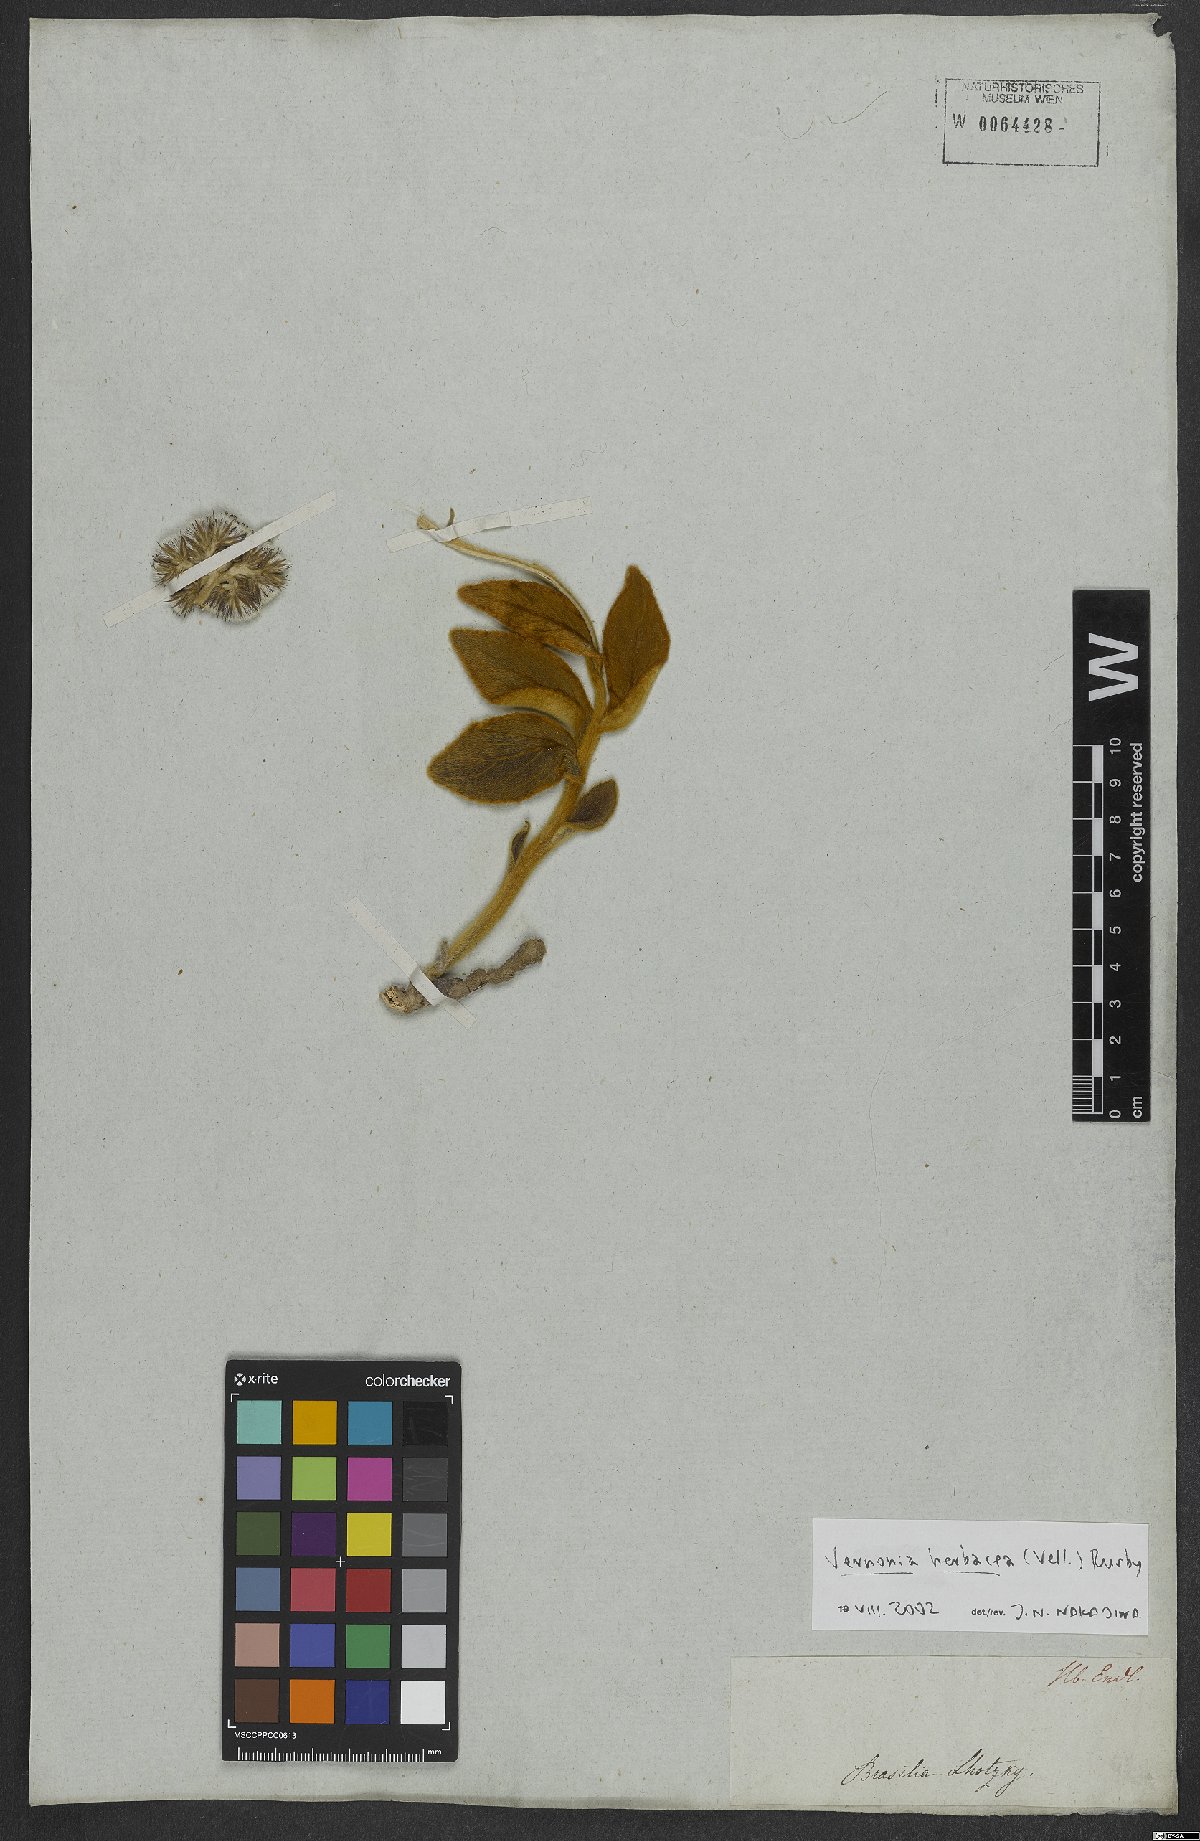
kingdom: Plantae
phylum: Tracheophyta
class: Magnoliopsida
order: Asterales
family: Asteraceae
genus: Chrysolaena
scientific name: Chrysolaena obovata
